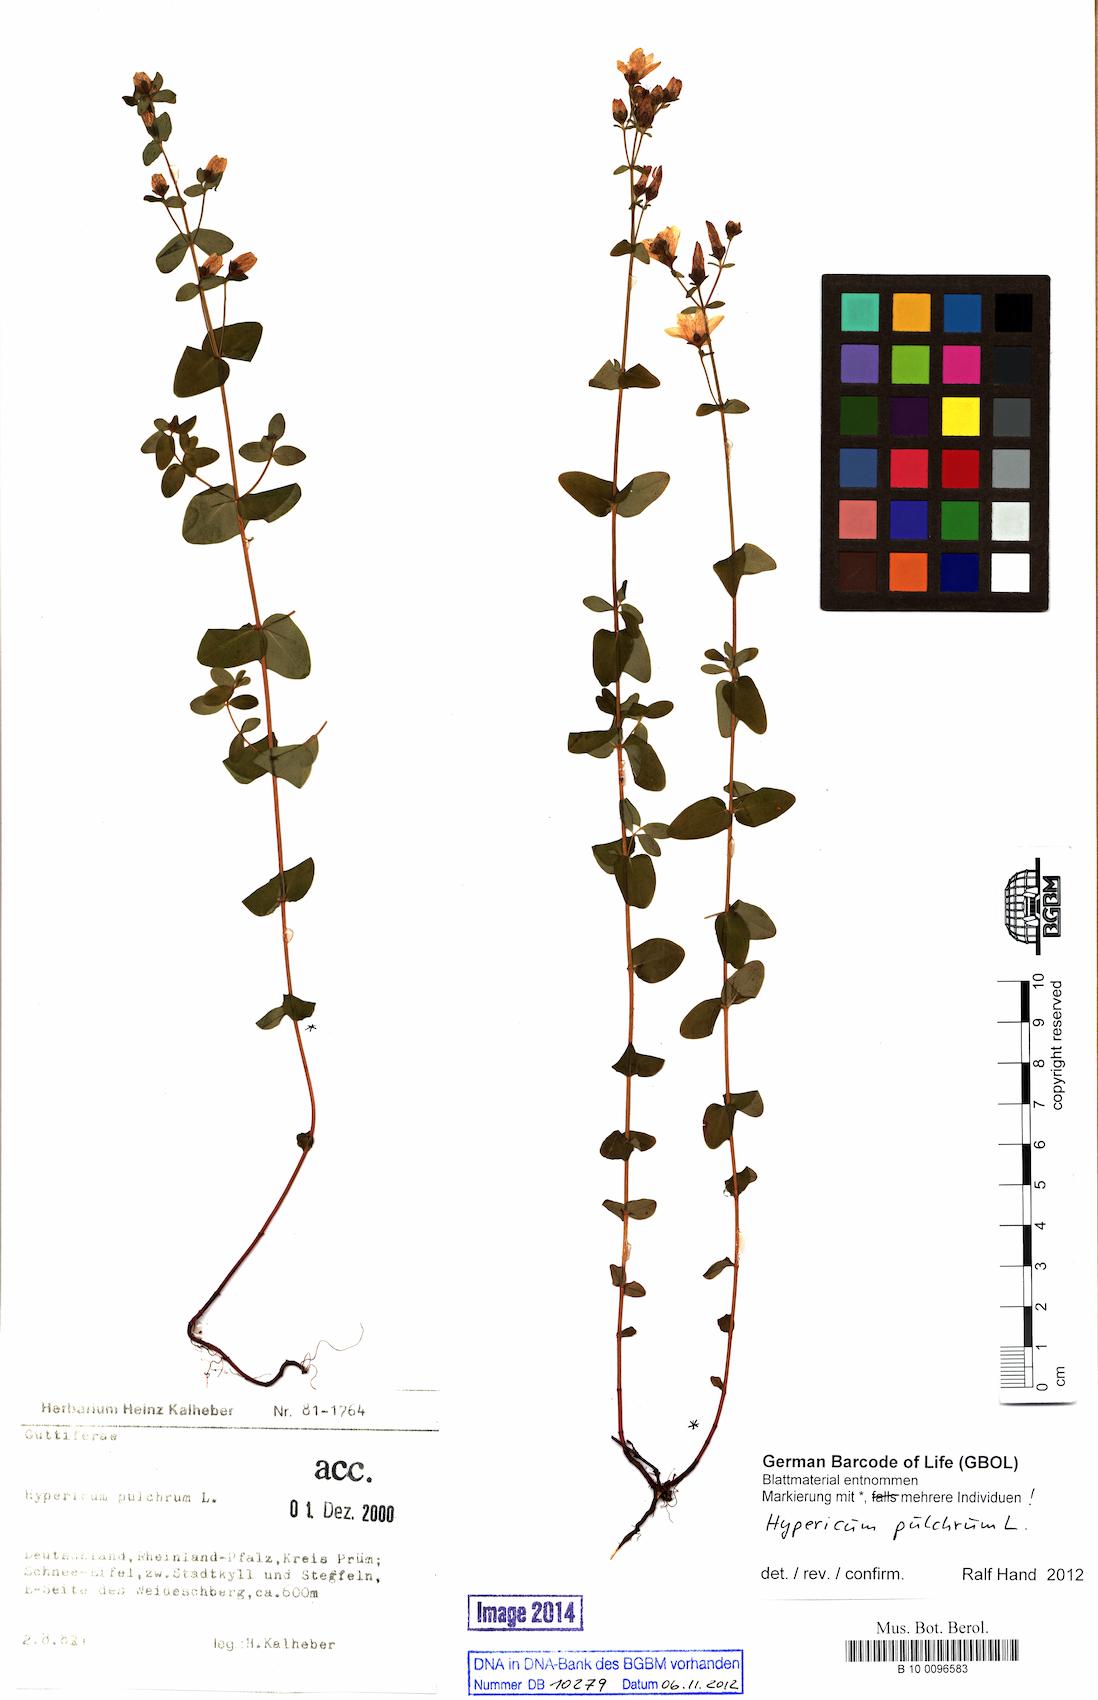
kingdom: Plantae
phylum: Tracheophyta
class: Magnoliopsida
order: Malpighiales
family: Hypericaceae
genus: Hypericum
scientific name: Hypericum pulchrum
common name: Slender st. john's-wort
